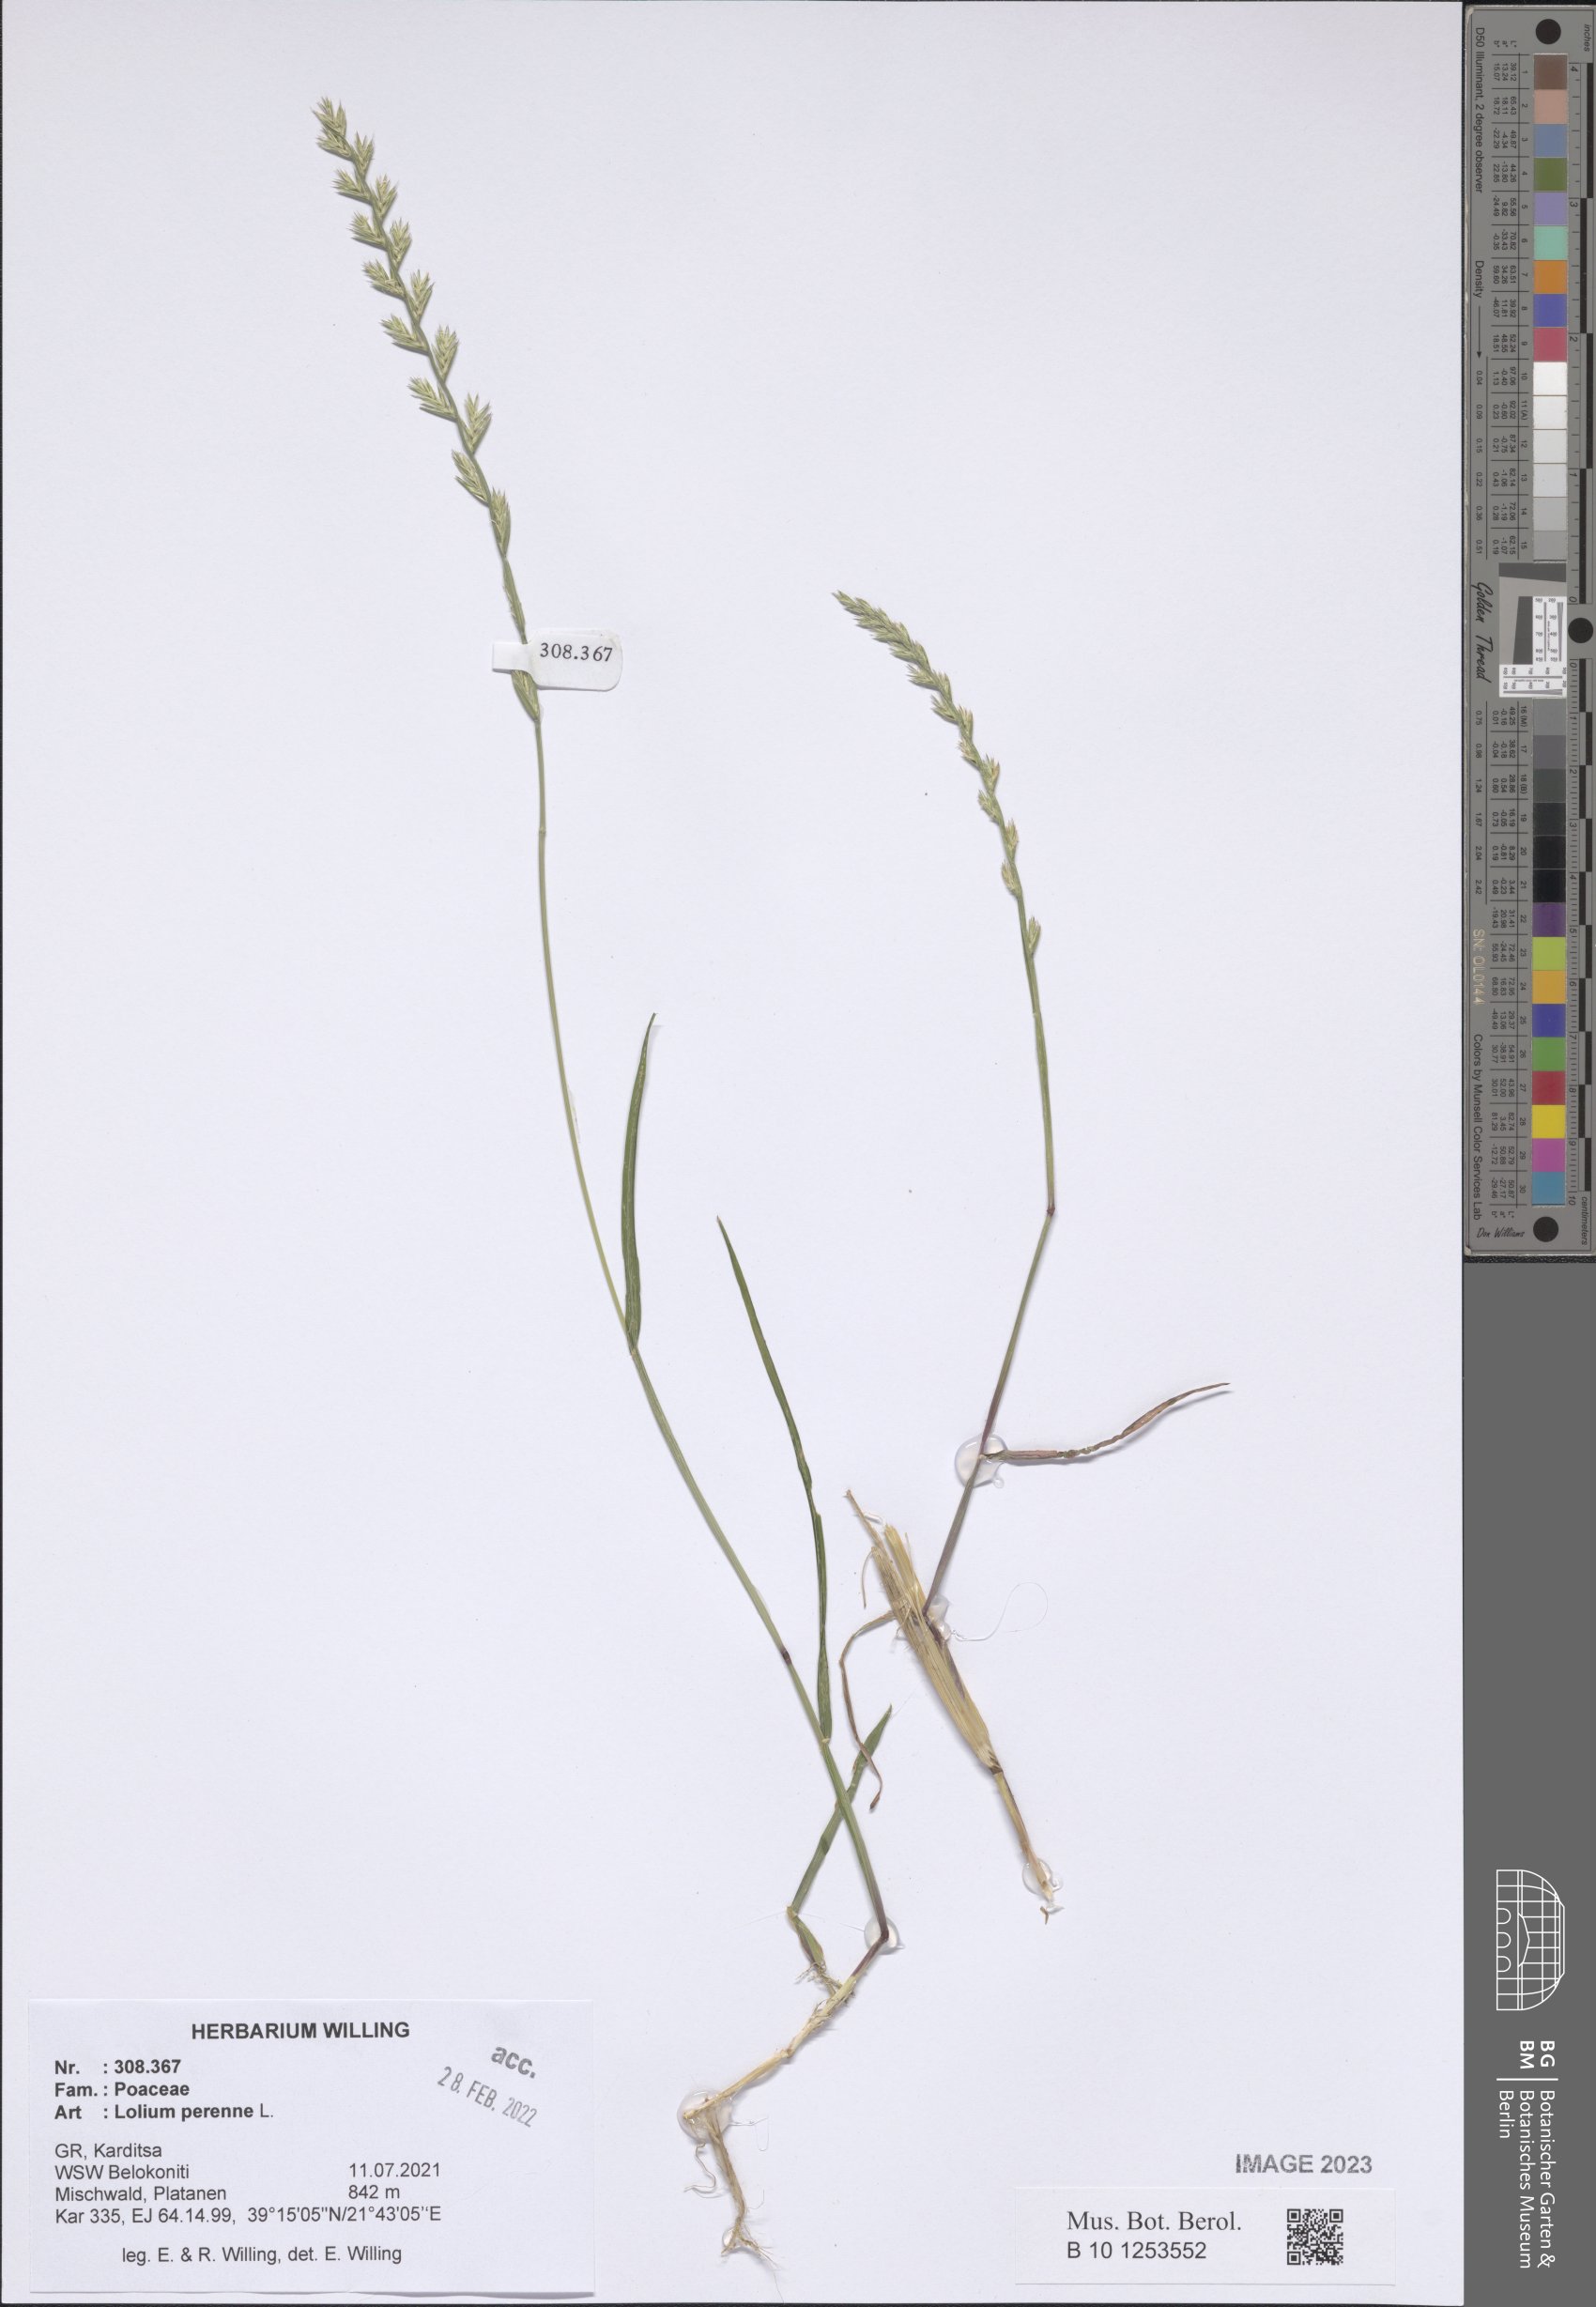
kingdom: Plantae
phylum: Tracheophyta
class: Liliopsida
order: Poales
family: Poaceae
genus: Lolium
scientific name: Lolium perenne
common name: Perennial ryegrass
